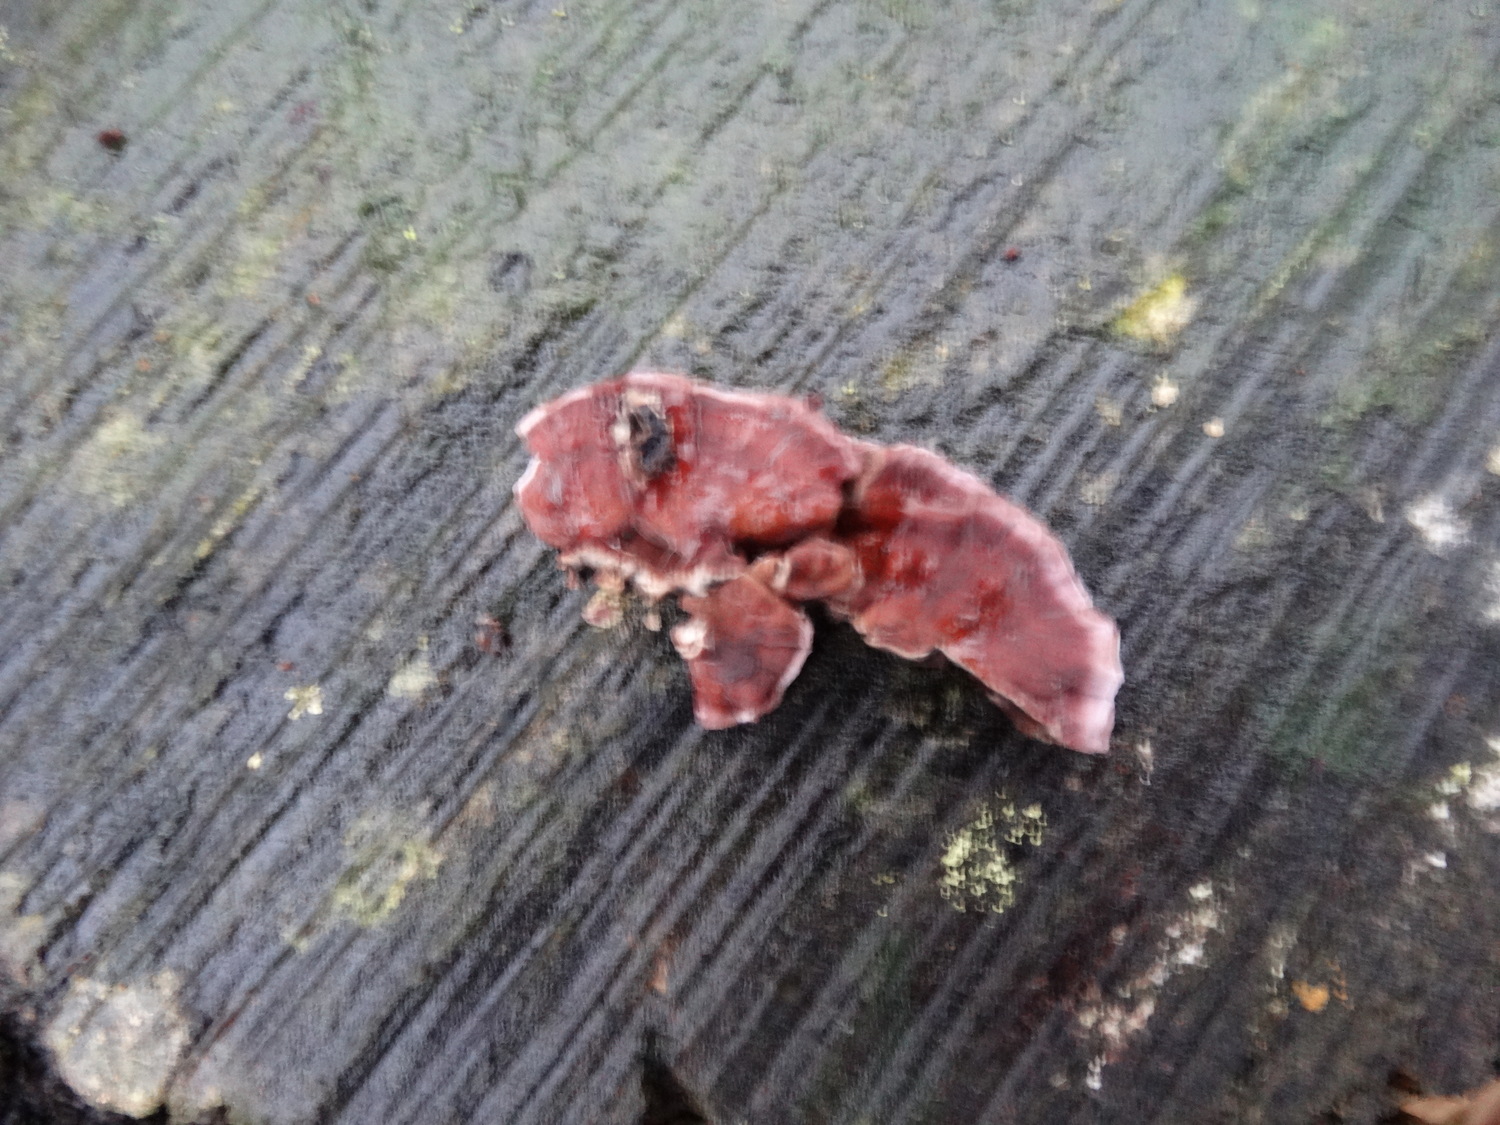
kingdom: Fungi
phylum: Basidiomycota
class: Agaricomycetes
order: Agaricales
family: Cyphellaceae
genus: Chondrostereum
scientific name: Chondrostereum purpureum
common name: purpurlædersvamp
